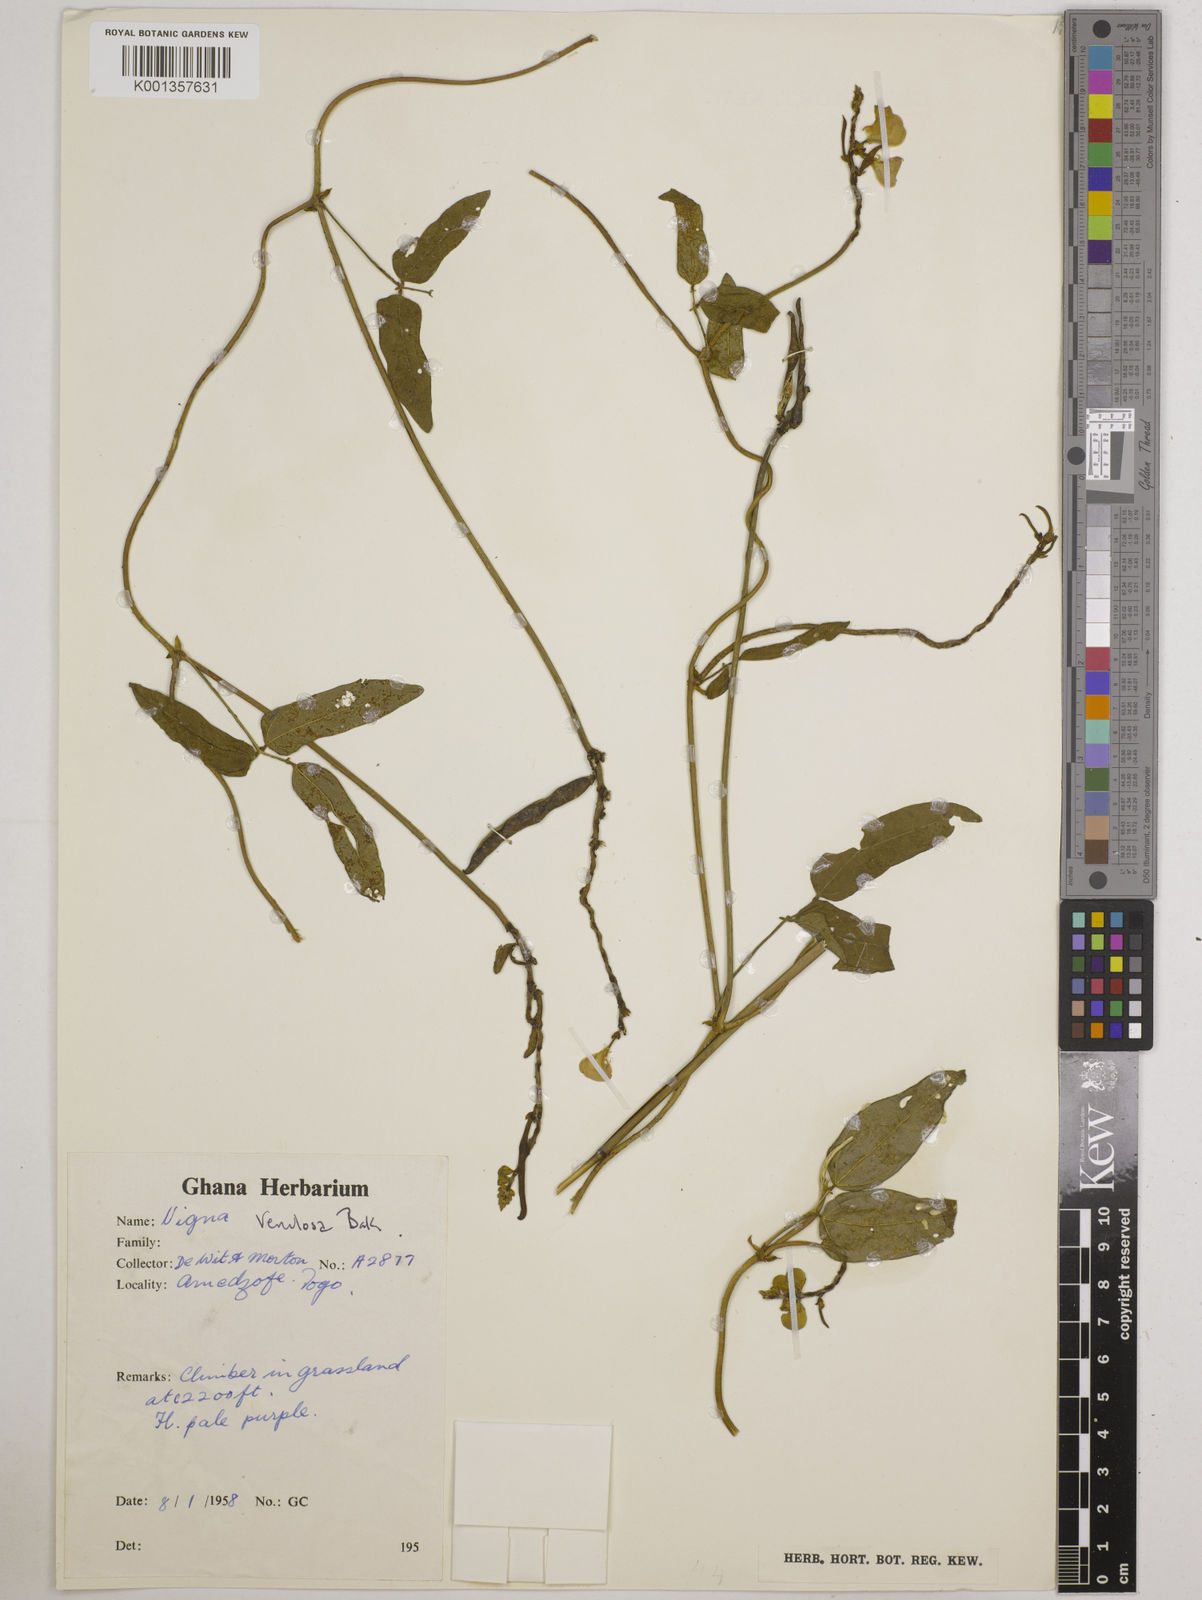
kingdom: Plantae
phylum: Tracheophyta
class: Magnoliopsida
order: Fabales
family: Fabaceae
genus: Vigna
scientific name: Vigna venulosa
